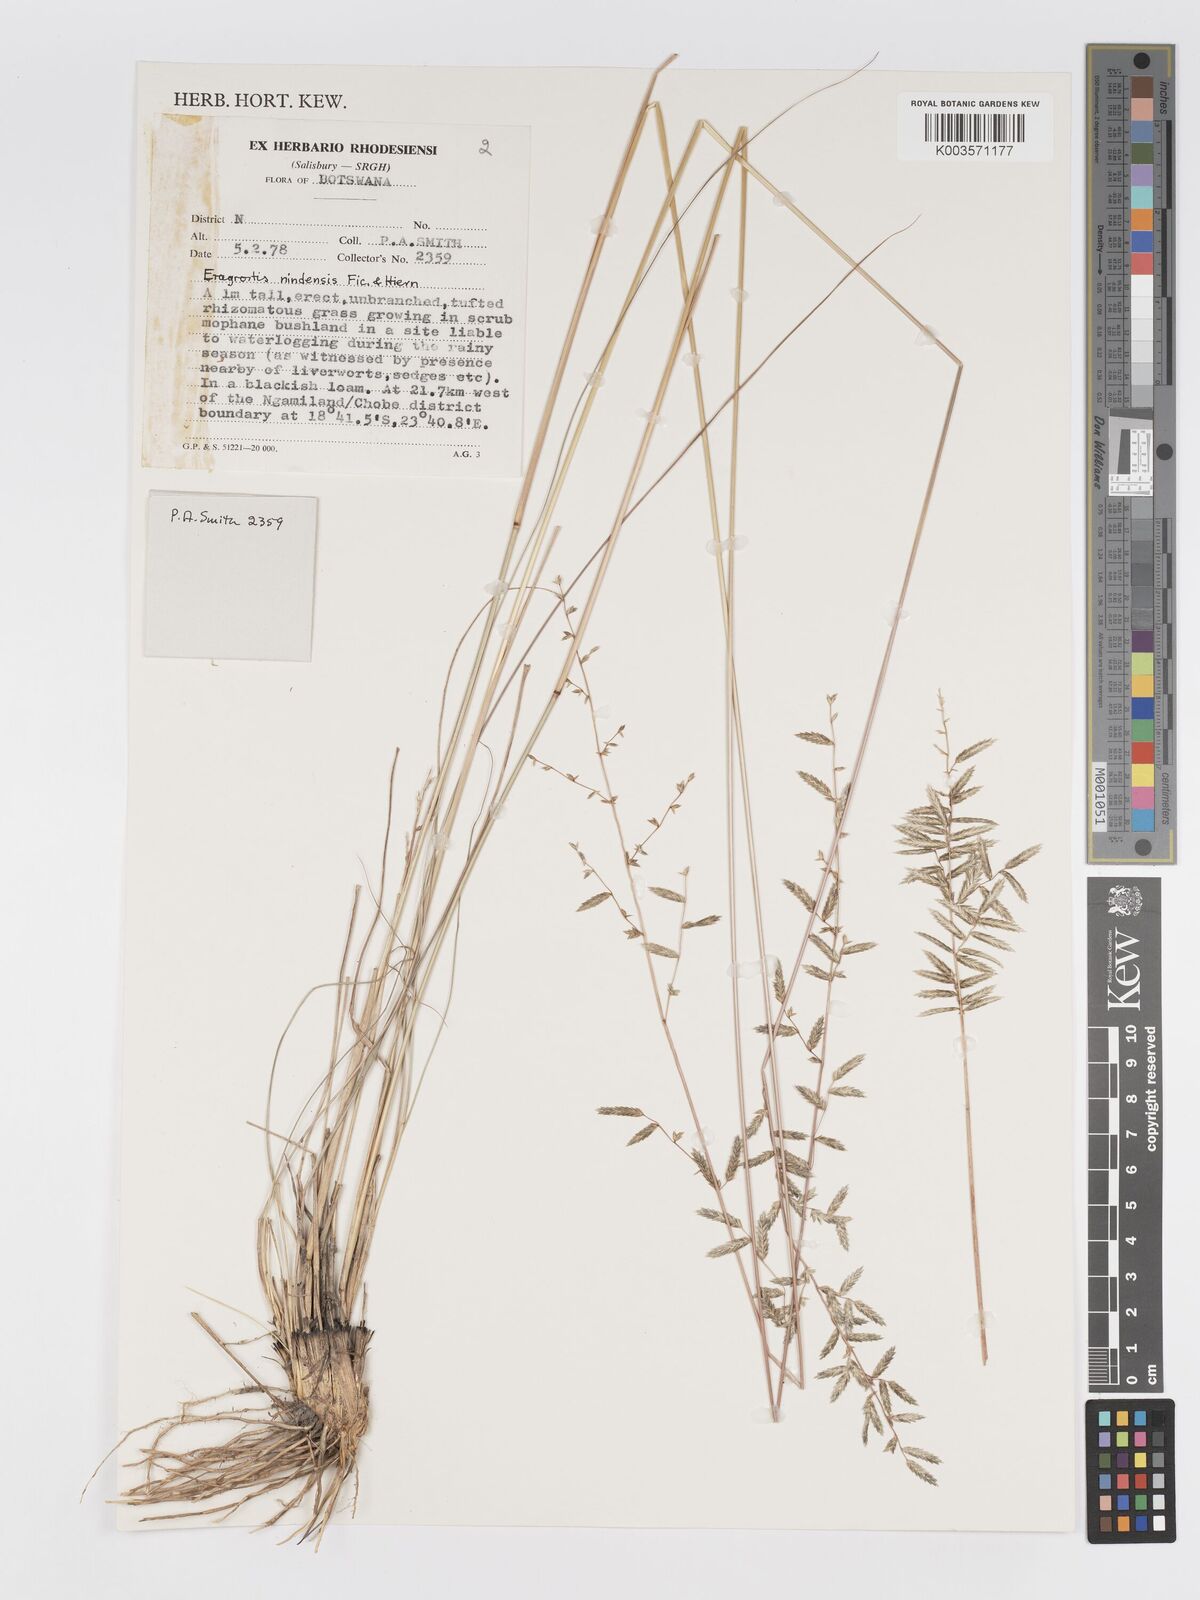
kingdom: Plantae
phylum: Tracheophyta
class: Liliopsida
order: Poales
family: Poaceae
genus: Eragrostis
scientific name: Eragrostis nindensis
